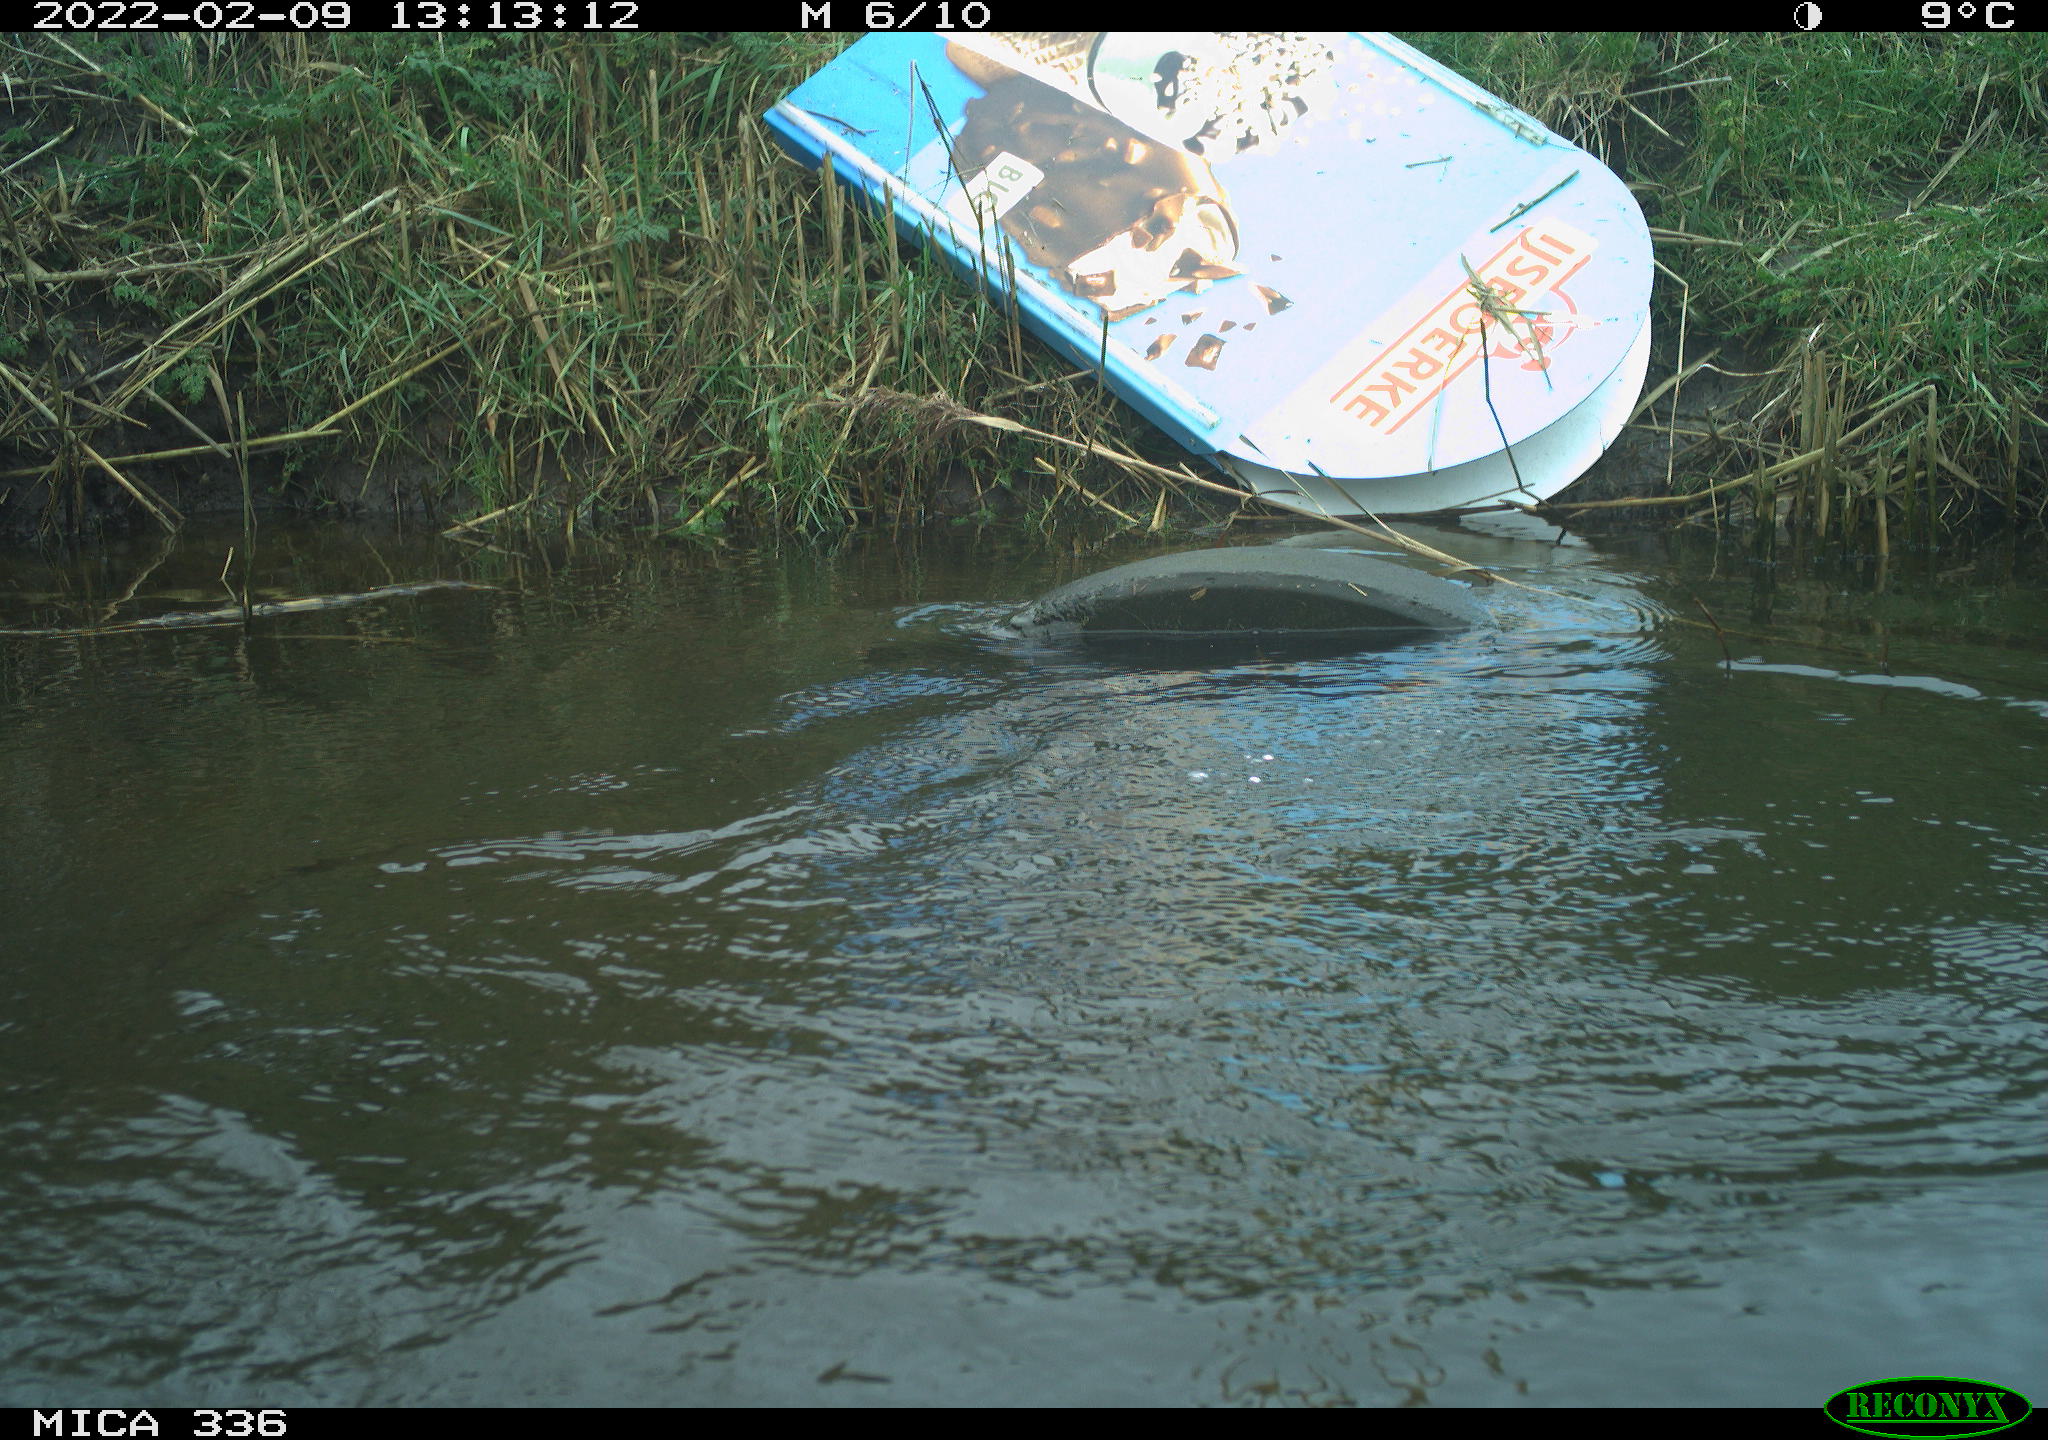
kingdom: Animalia
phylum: Chordata
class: Aves
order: Suliformes
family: Phalacrocoracidae
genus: Phalacrocorax
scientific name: Phalacrocorax carbo
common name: Great cormorant
